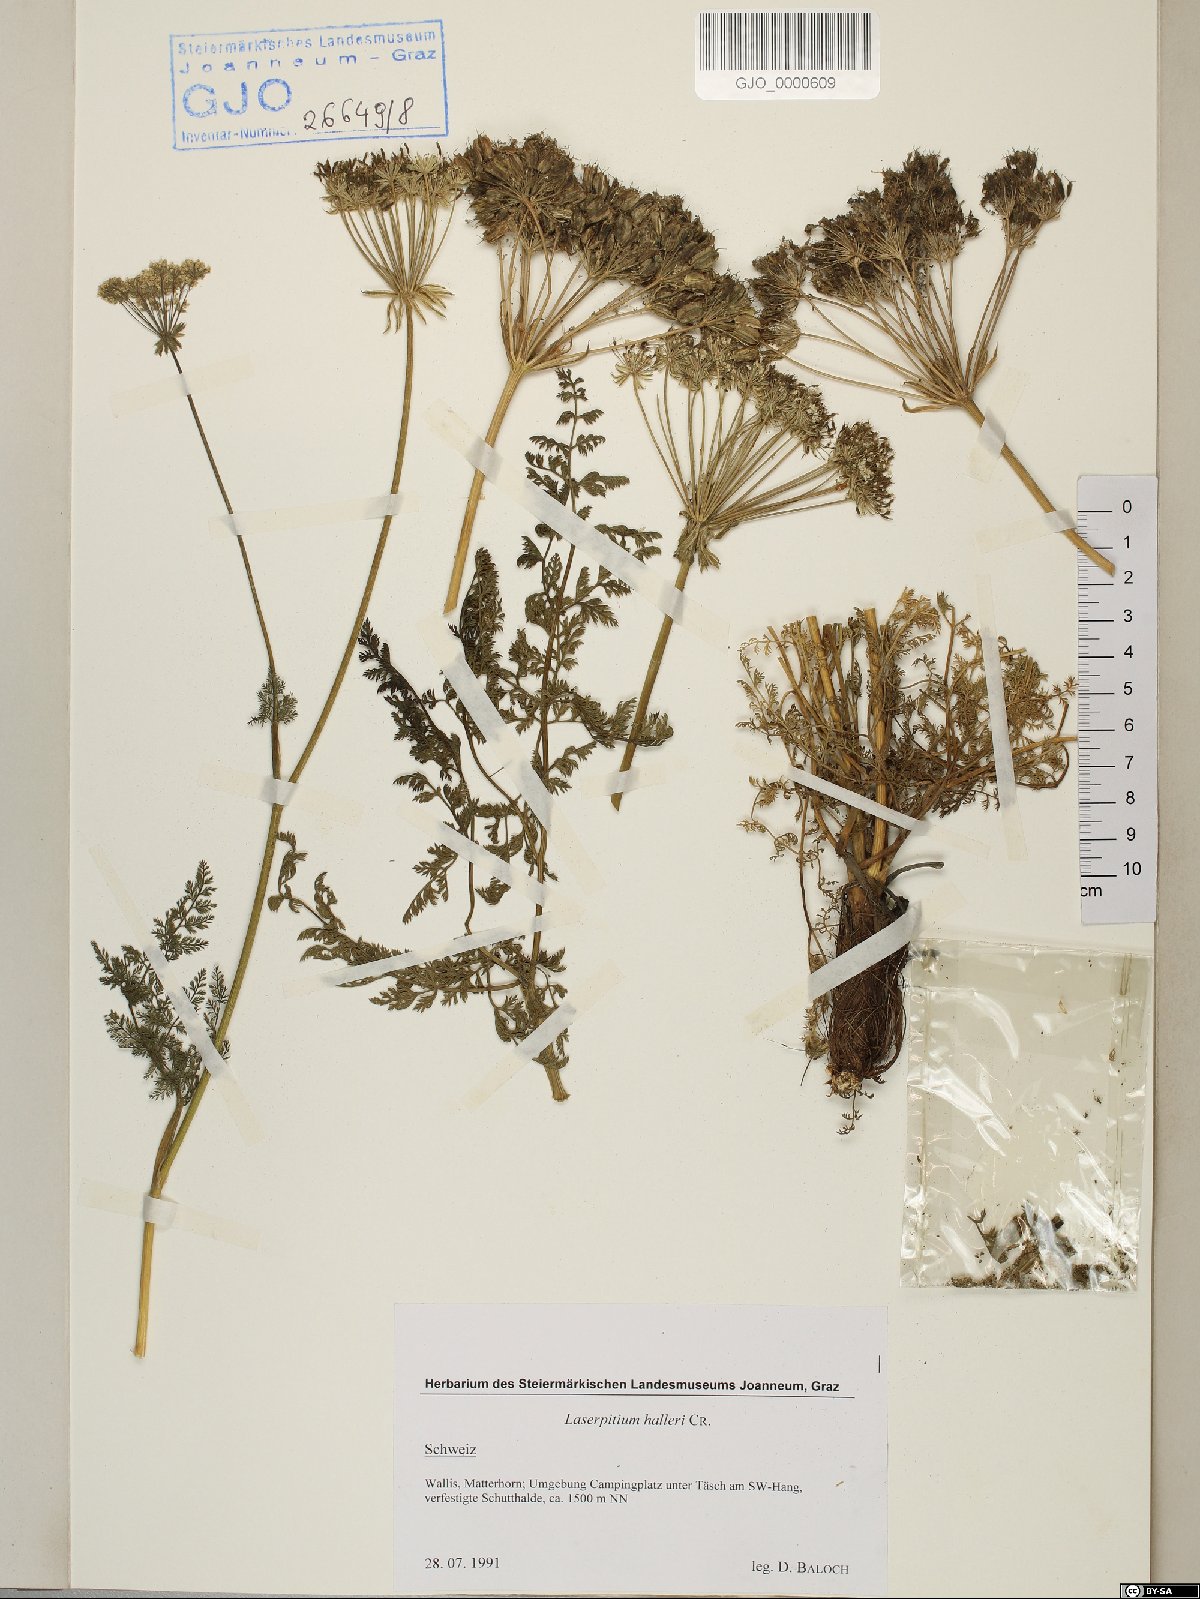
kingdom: Plantae
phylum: Tracheophyta
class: Magnoliopsida
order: Apiales
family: Apiaceae
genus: Laserpitium
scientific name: Laserpitium halleri
